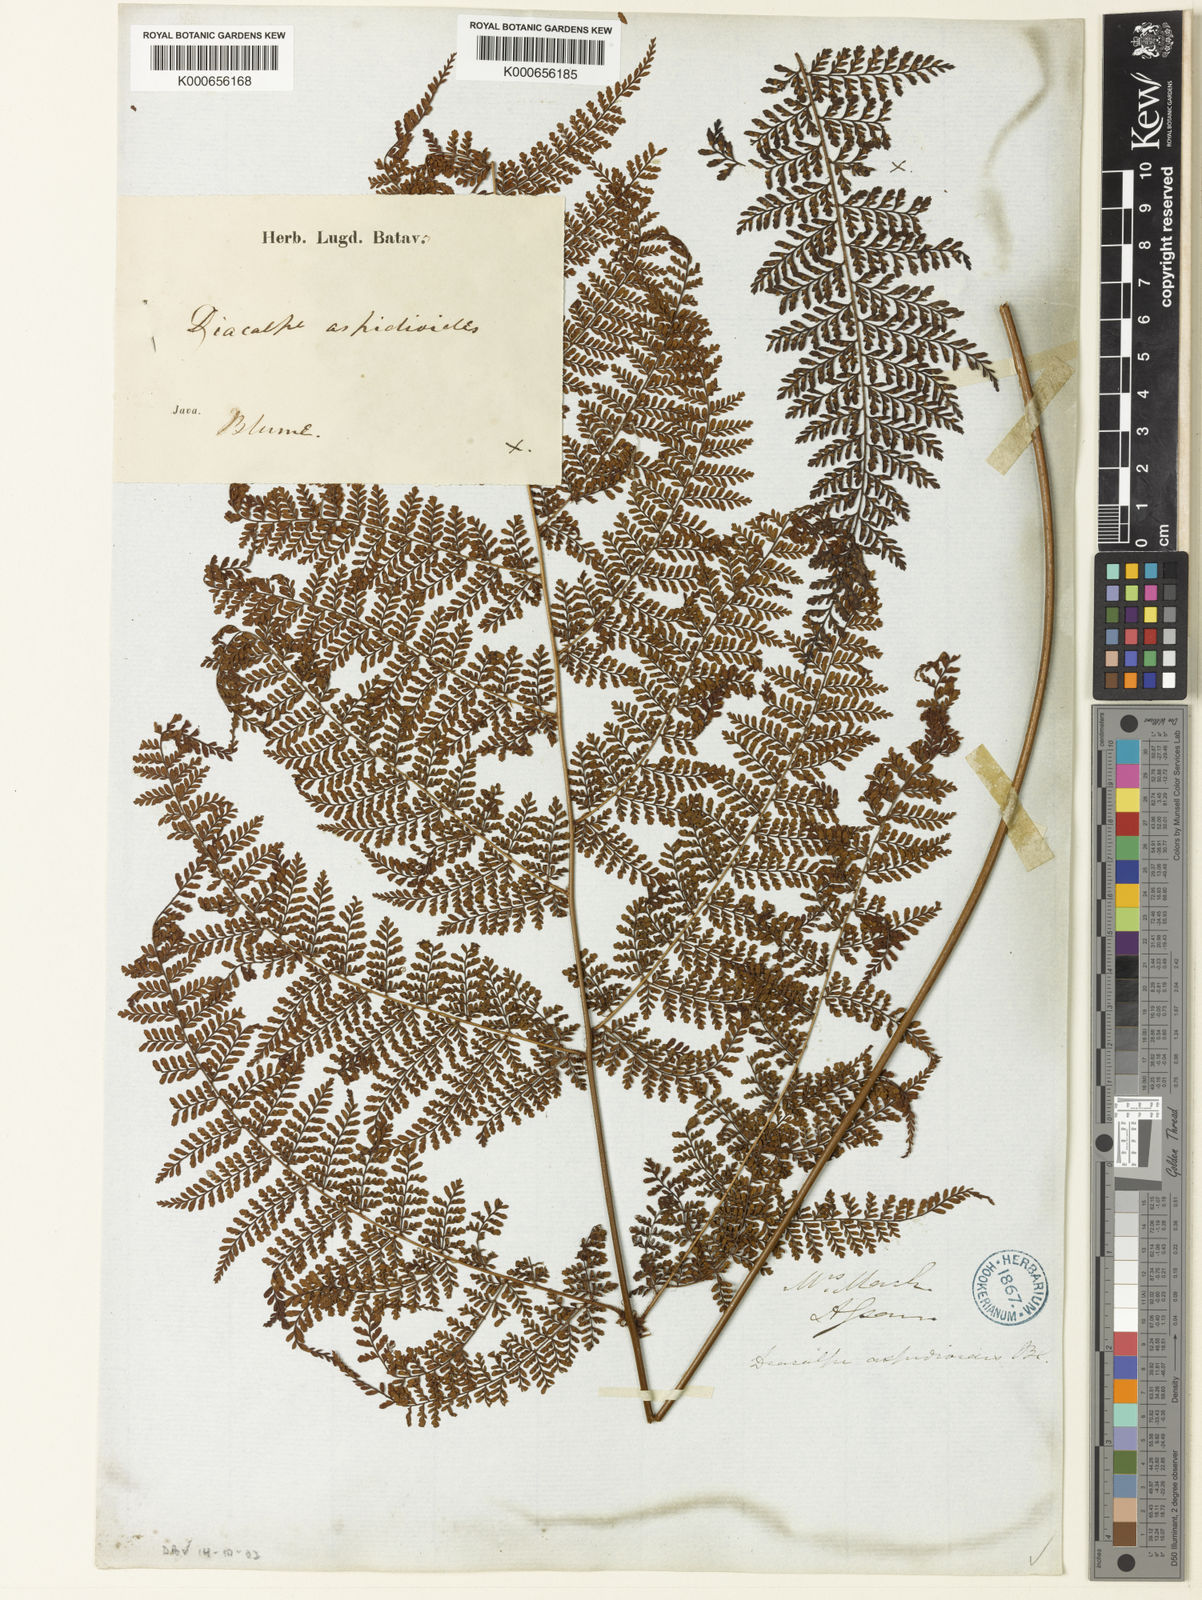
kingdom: Plantae
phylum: Tracheophyta
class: Polypodiopsida
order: Polypodiales
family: Dryopteridaceae
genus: Dryopteris
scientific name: Dryopteris pseudocaenopteris
